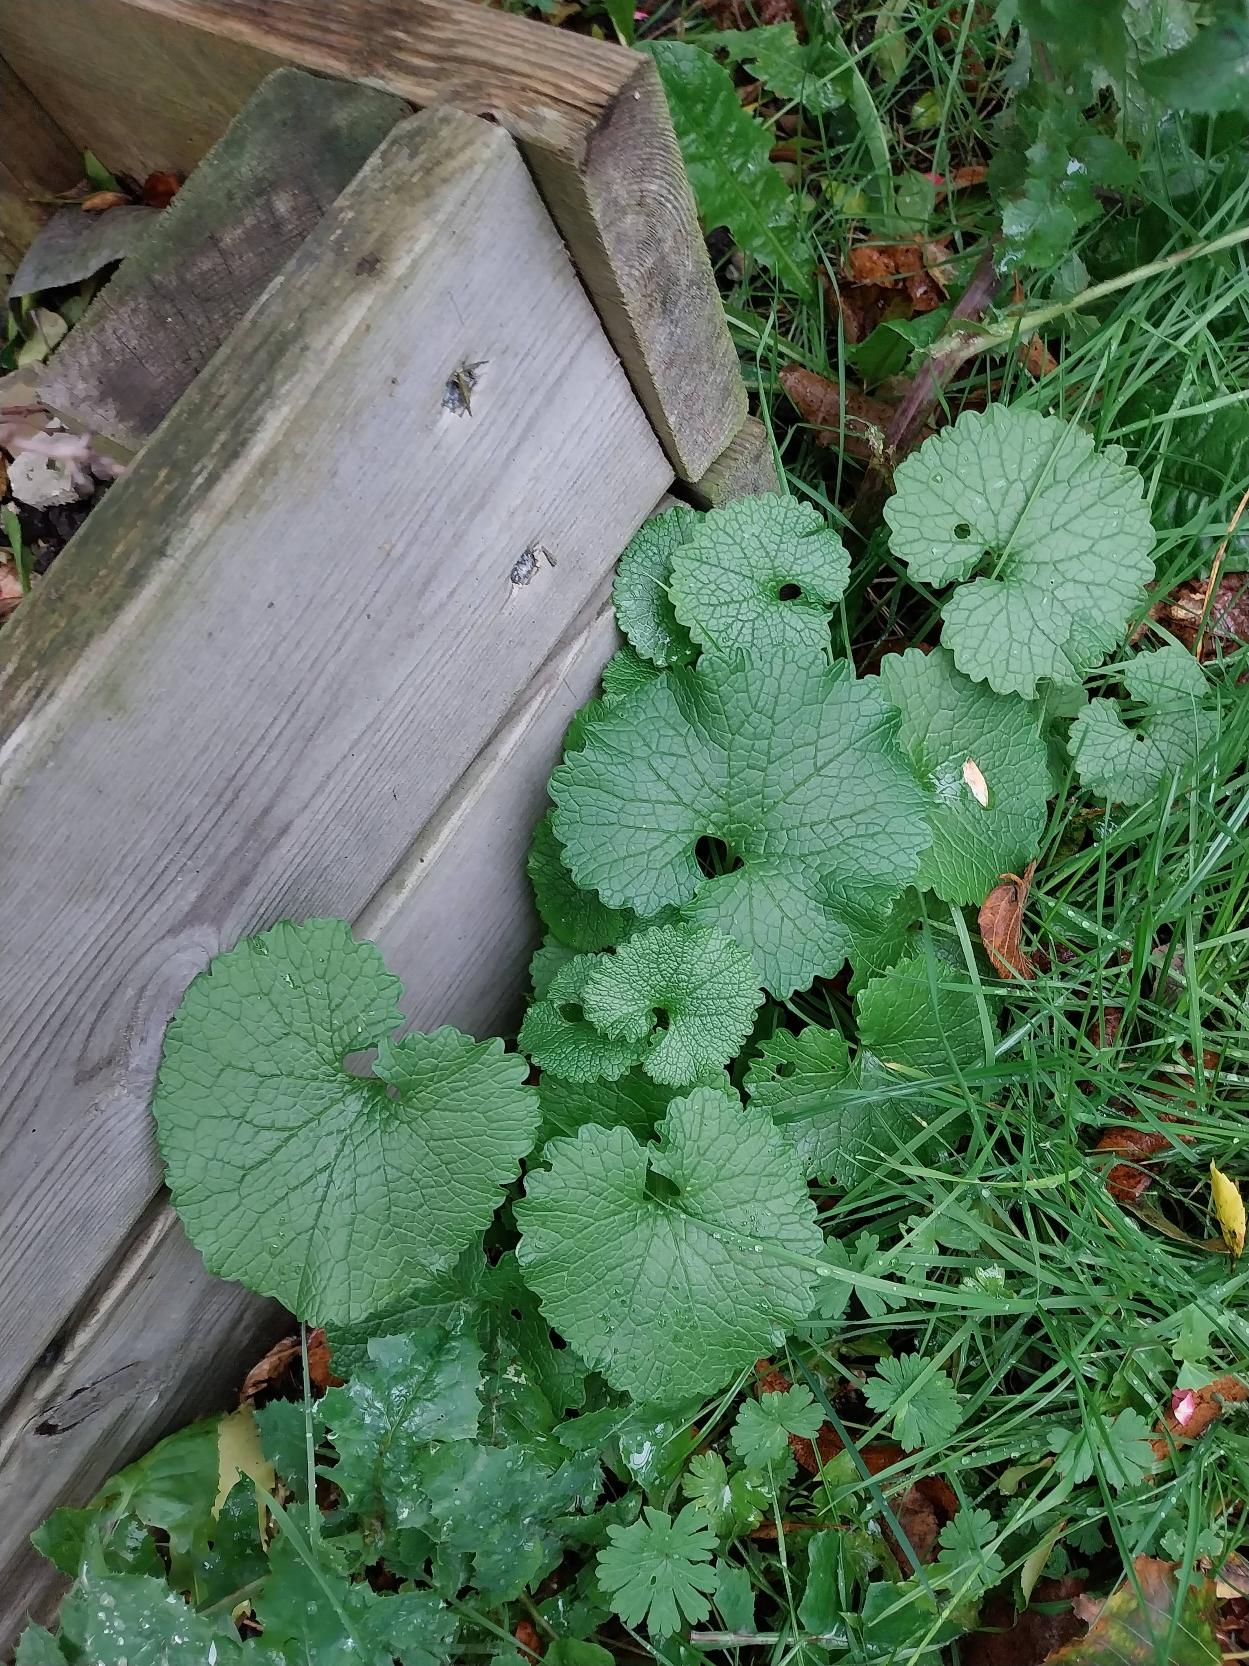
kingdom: Plantae
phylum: Tracheophyta
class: Magnoliopsida
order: Brassicales
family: Brassicaceae
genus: Alliaria
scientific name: Alliaria petiolata
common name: Løgkarse
